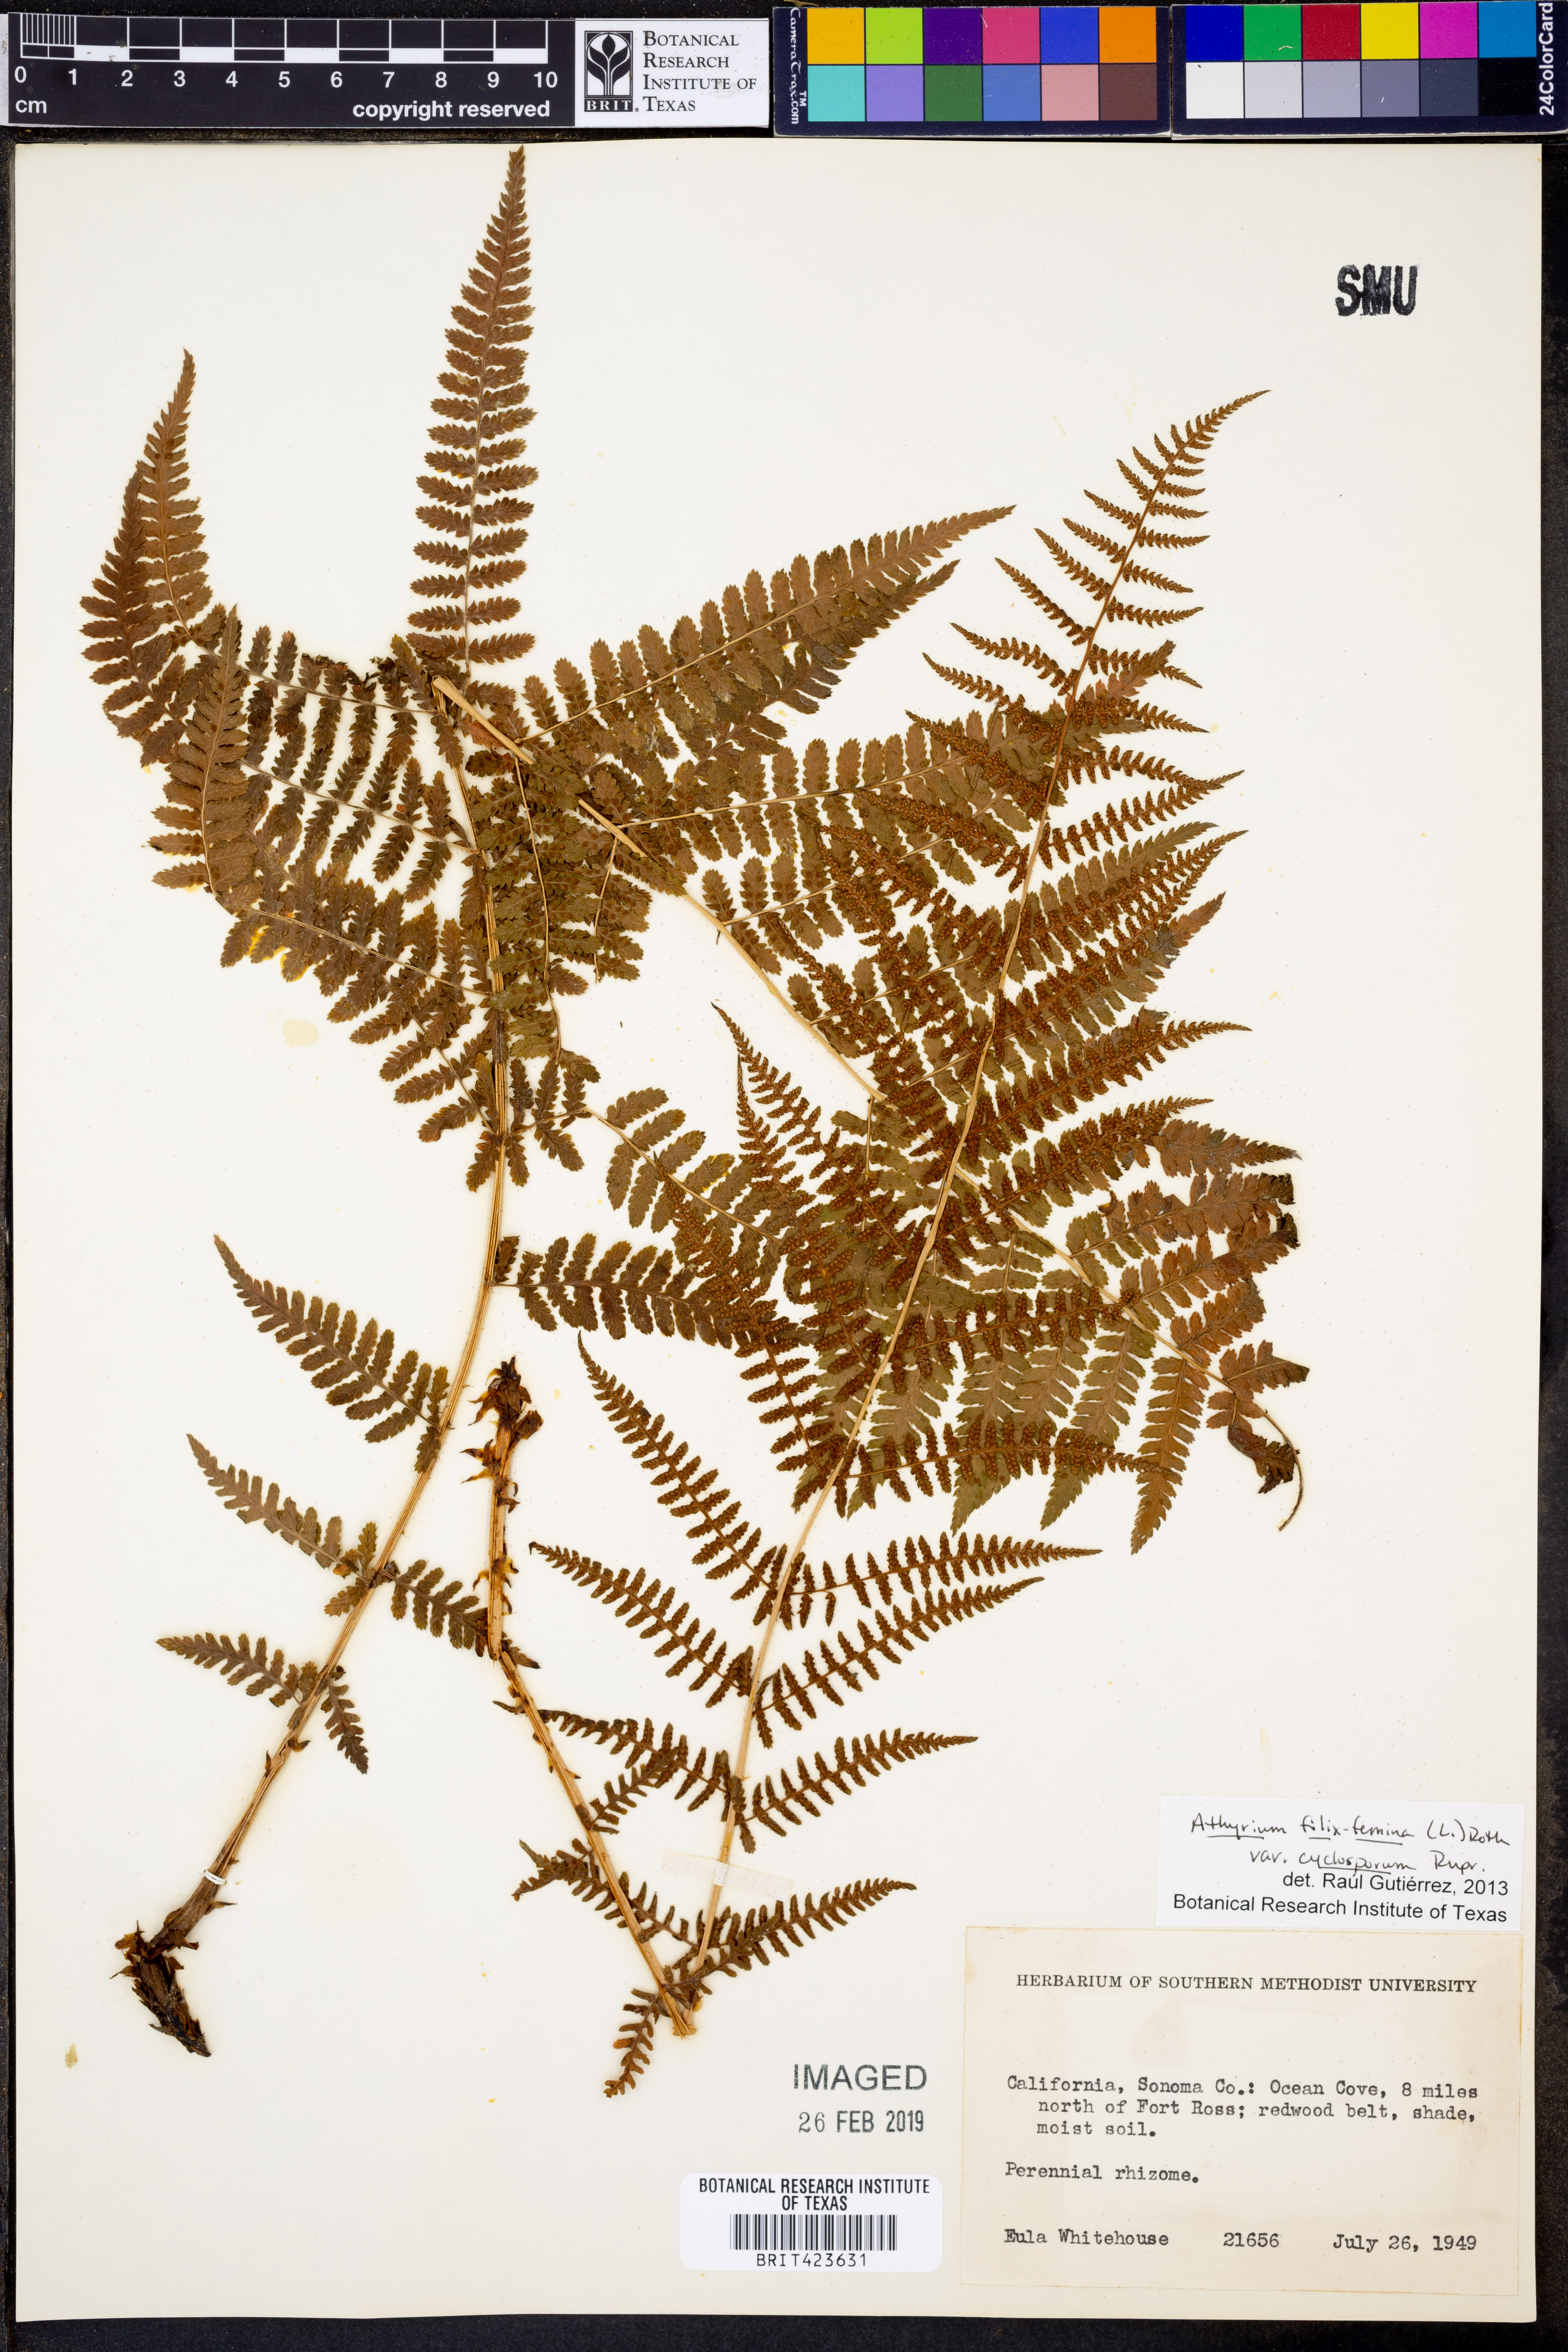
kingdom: Plantae
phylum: Tracheophyta
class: Polypodiopsida
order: Polypodiales
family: Athyriaceae
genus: Athyrium
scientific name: Athyrium filix-femina
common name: Lady fern
